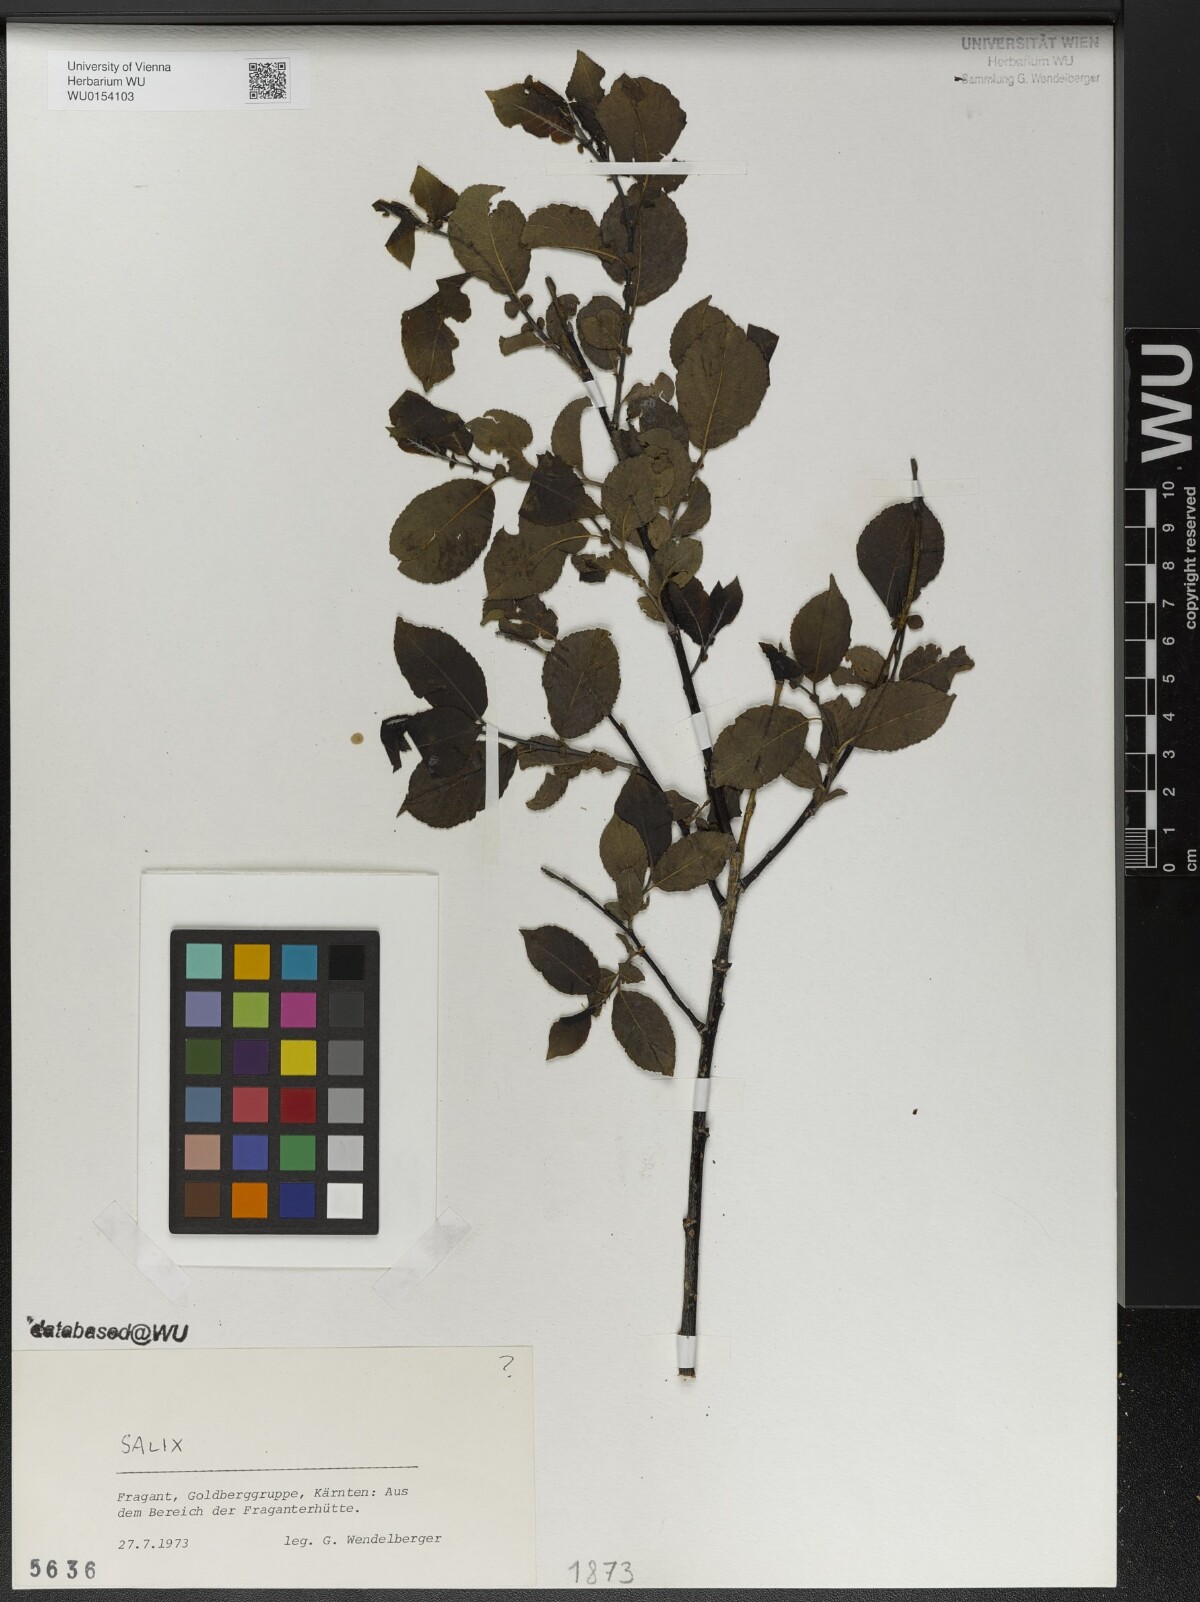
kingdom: Plantae
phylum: Tracheophyta
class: Magnoliopsida
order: Malpighiales
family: Salicaceae
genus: Salix
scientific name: Salix
